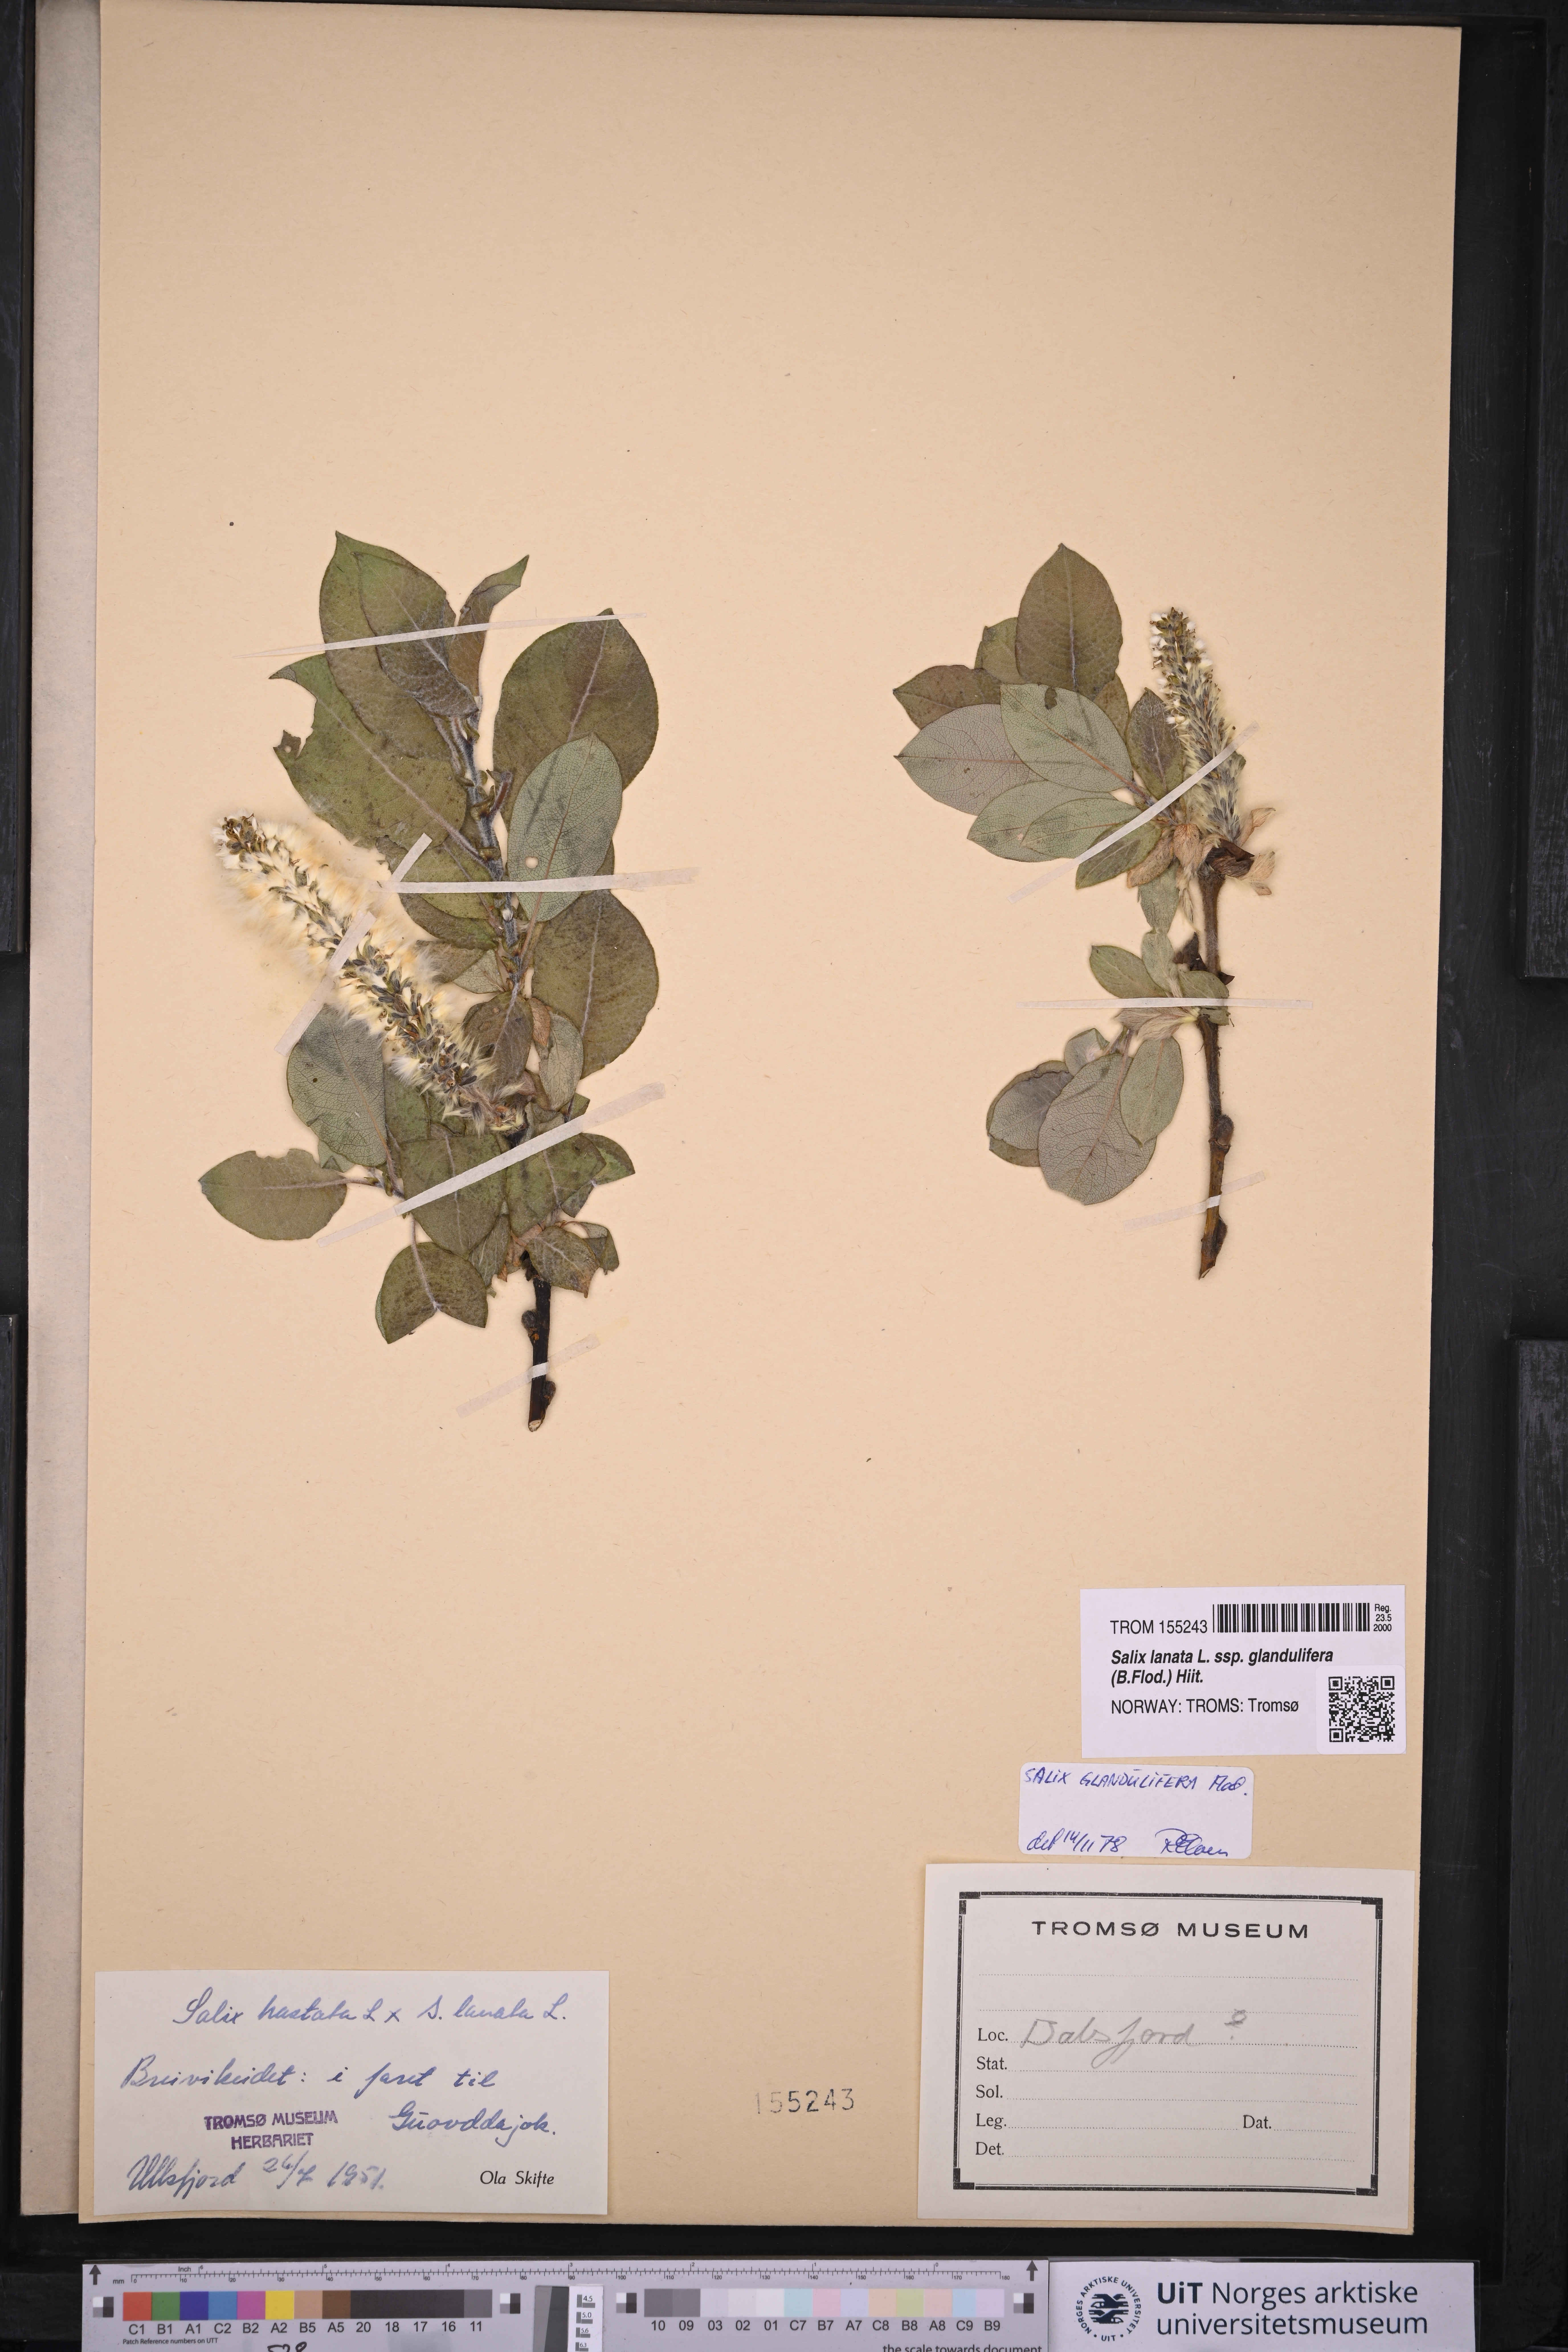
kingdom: Plantae
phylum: Tracheophyta
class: Magnoliopsida
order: Malpighiales
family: Salicaceae
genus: Salix
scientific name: Salix lanata
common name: Woolly willow
